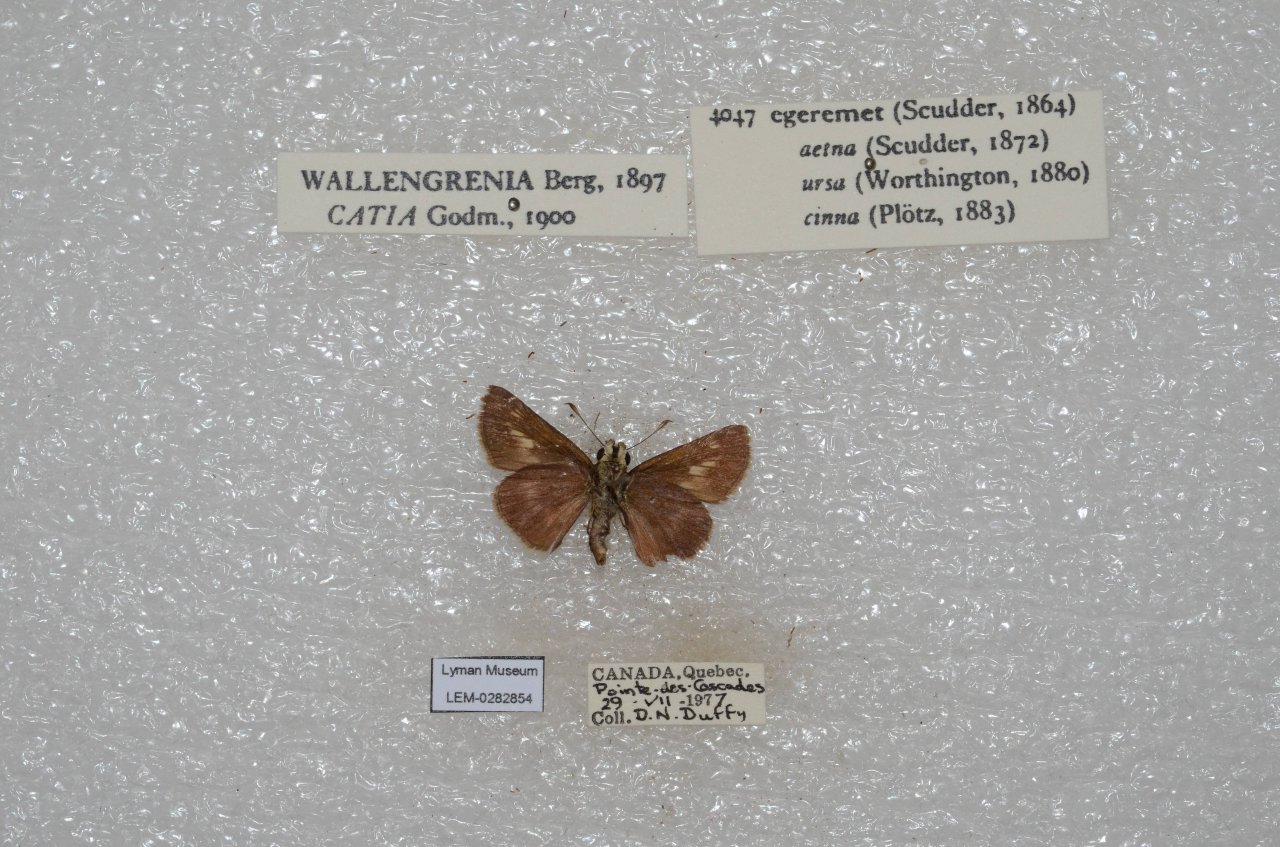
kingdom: Animalia
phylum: Arthropoda
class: Insecta
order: Lepidoptera
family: Hesperiidae
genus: Polites
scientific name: Polites egeremet
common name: Northern Broken-Dash
